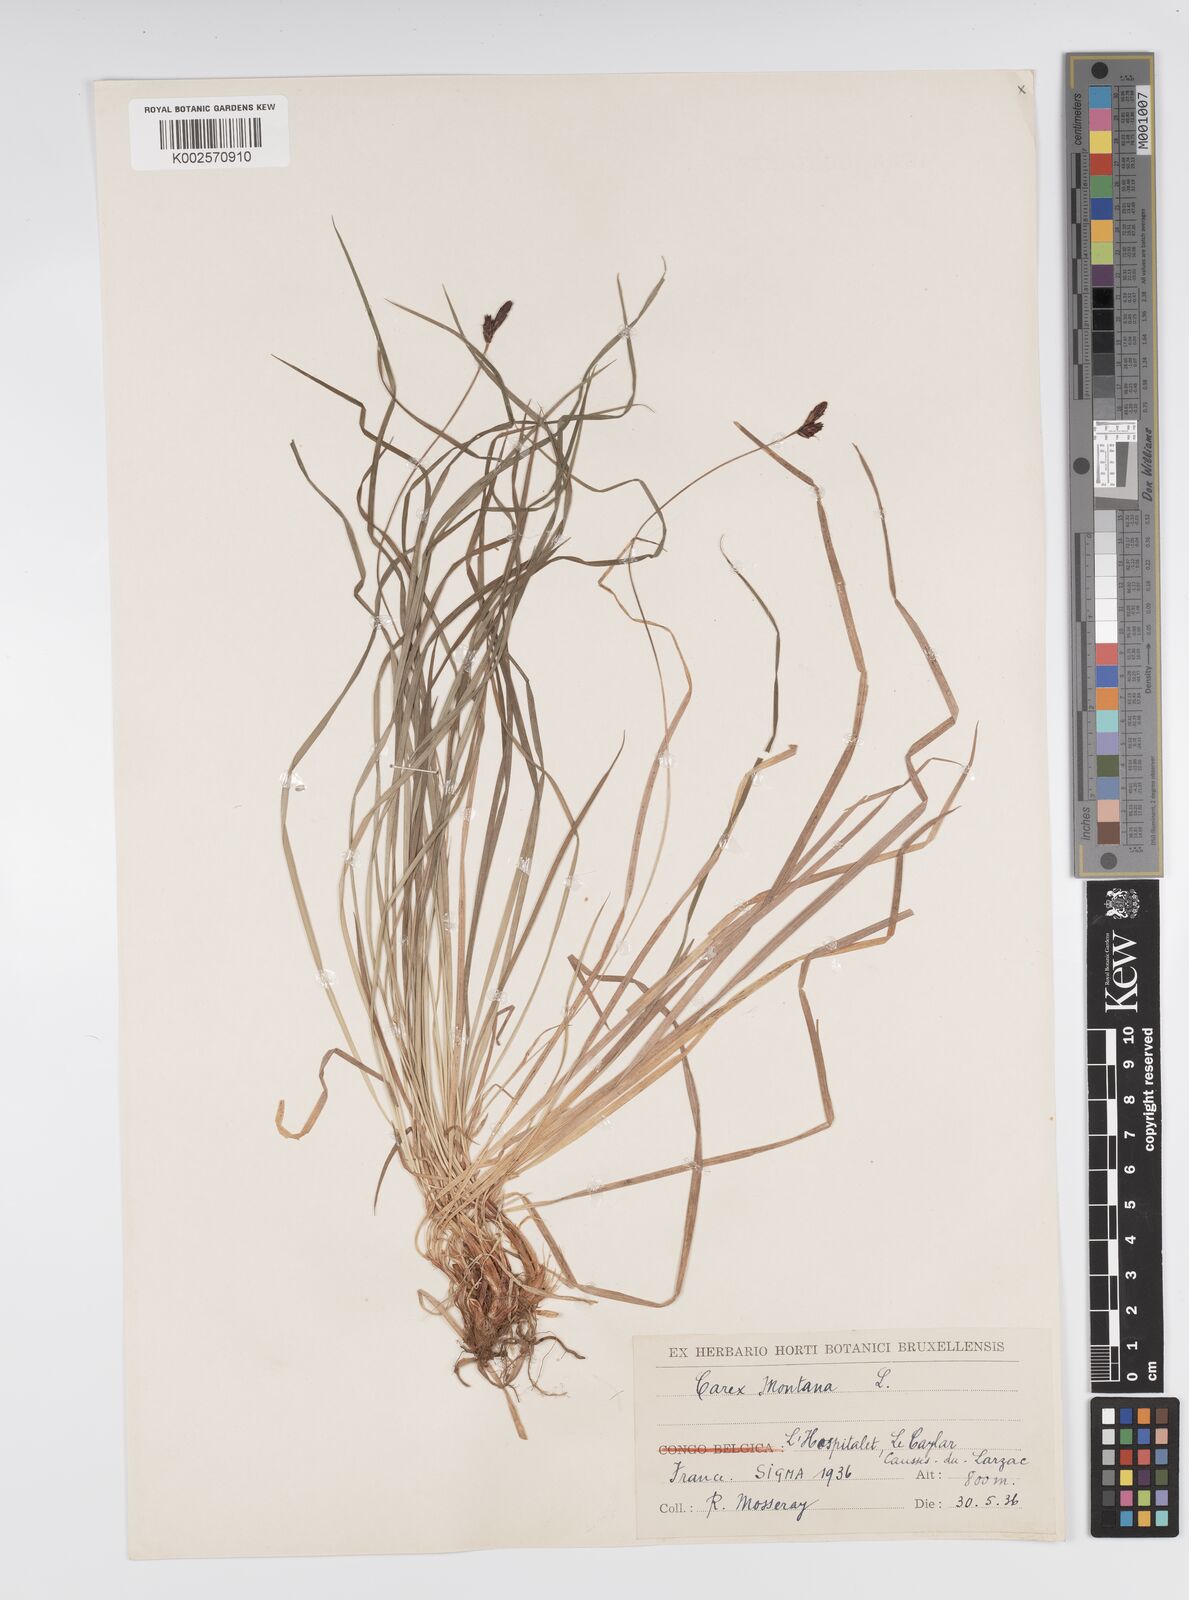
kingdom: Plantae
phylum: Tracheophyta
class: Liliopsida
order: Poales
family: Cyperaceae
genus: Carex
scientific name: Carex montana
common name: Soft-leaved sedge
